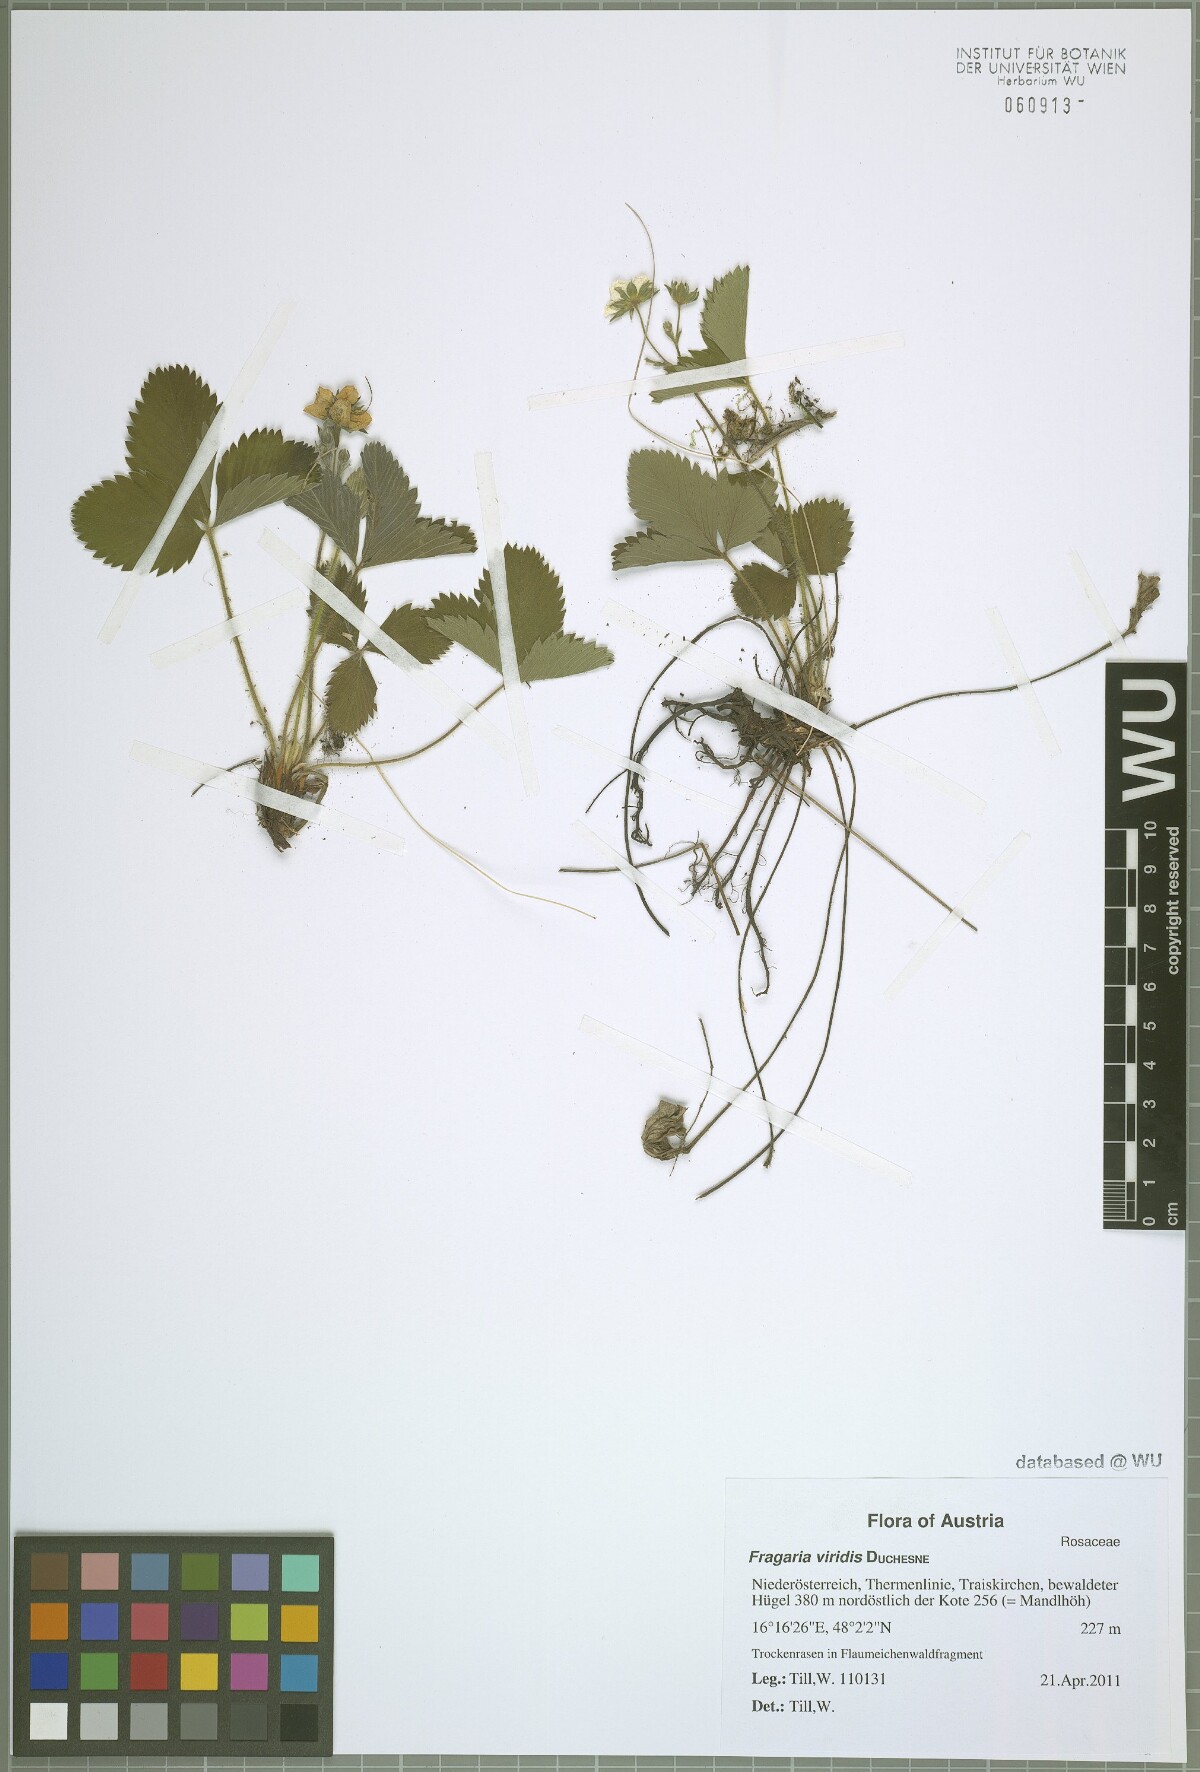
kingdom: Plantae
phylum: Tracheophyta
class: Magnoliopsida
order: Rosales
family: Rosaceae
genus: Fragaria
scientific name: Fragaria viridis
